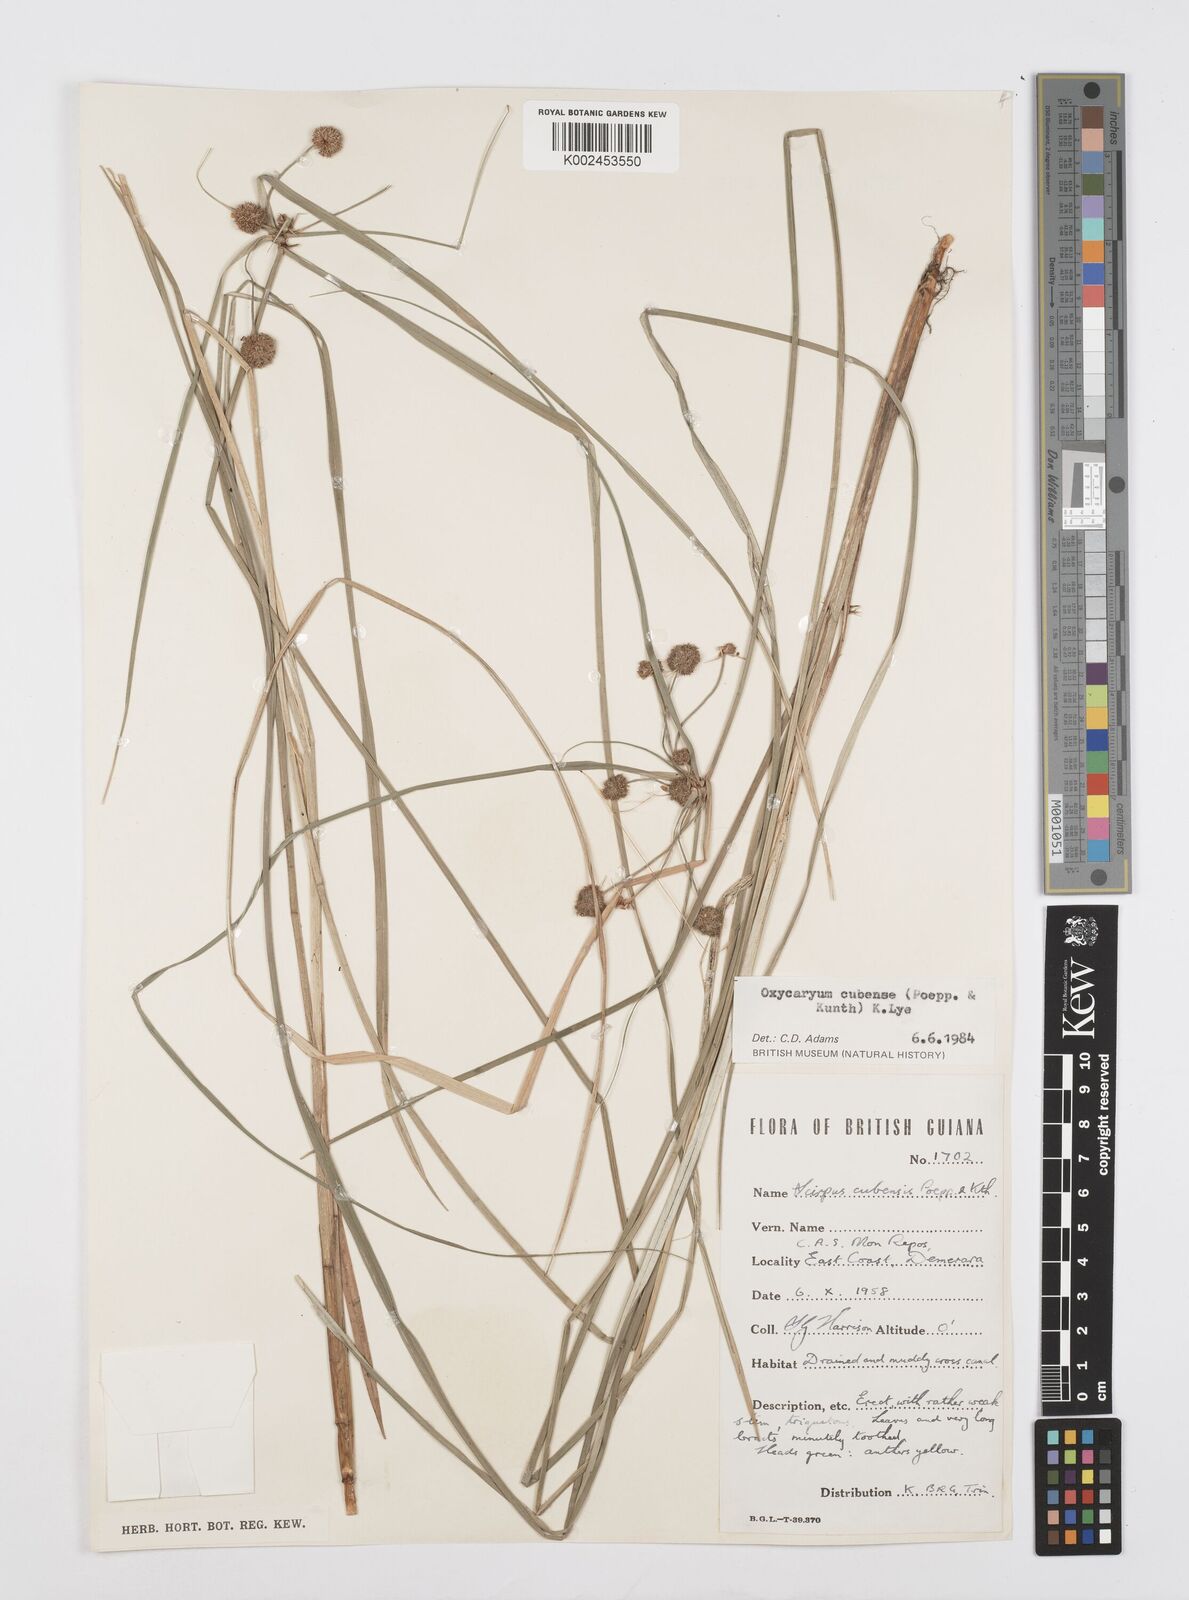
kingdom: Plantae
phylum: Tracheophyta
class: Liliopsida
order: Poales
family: Cyperaceae
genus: Cyperus
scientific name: Cyperus elegans
